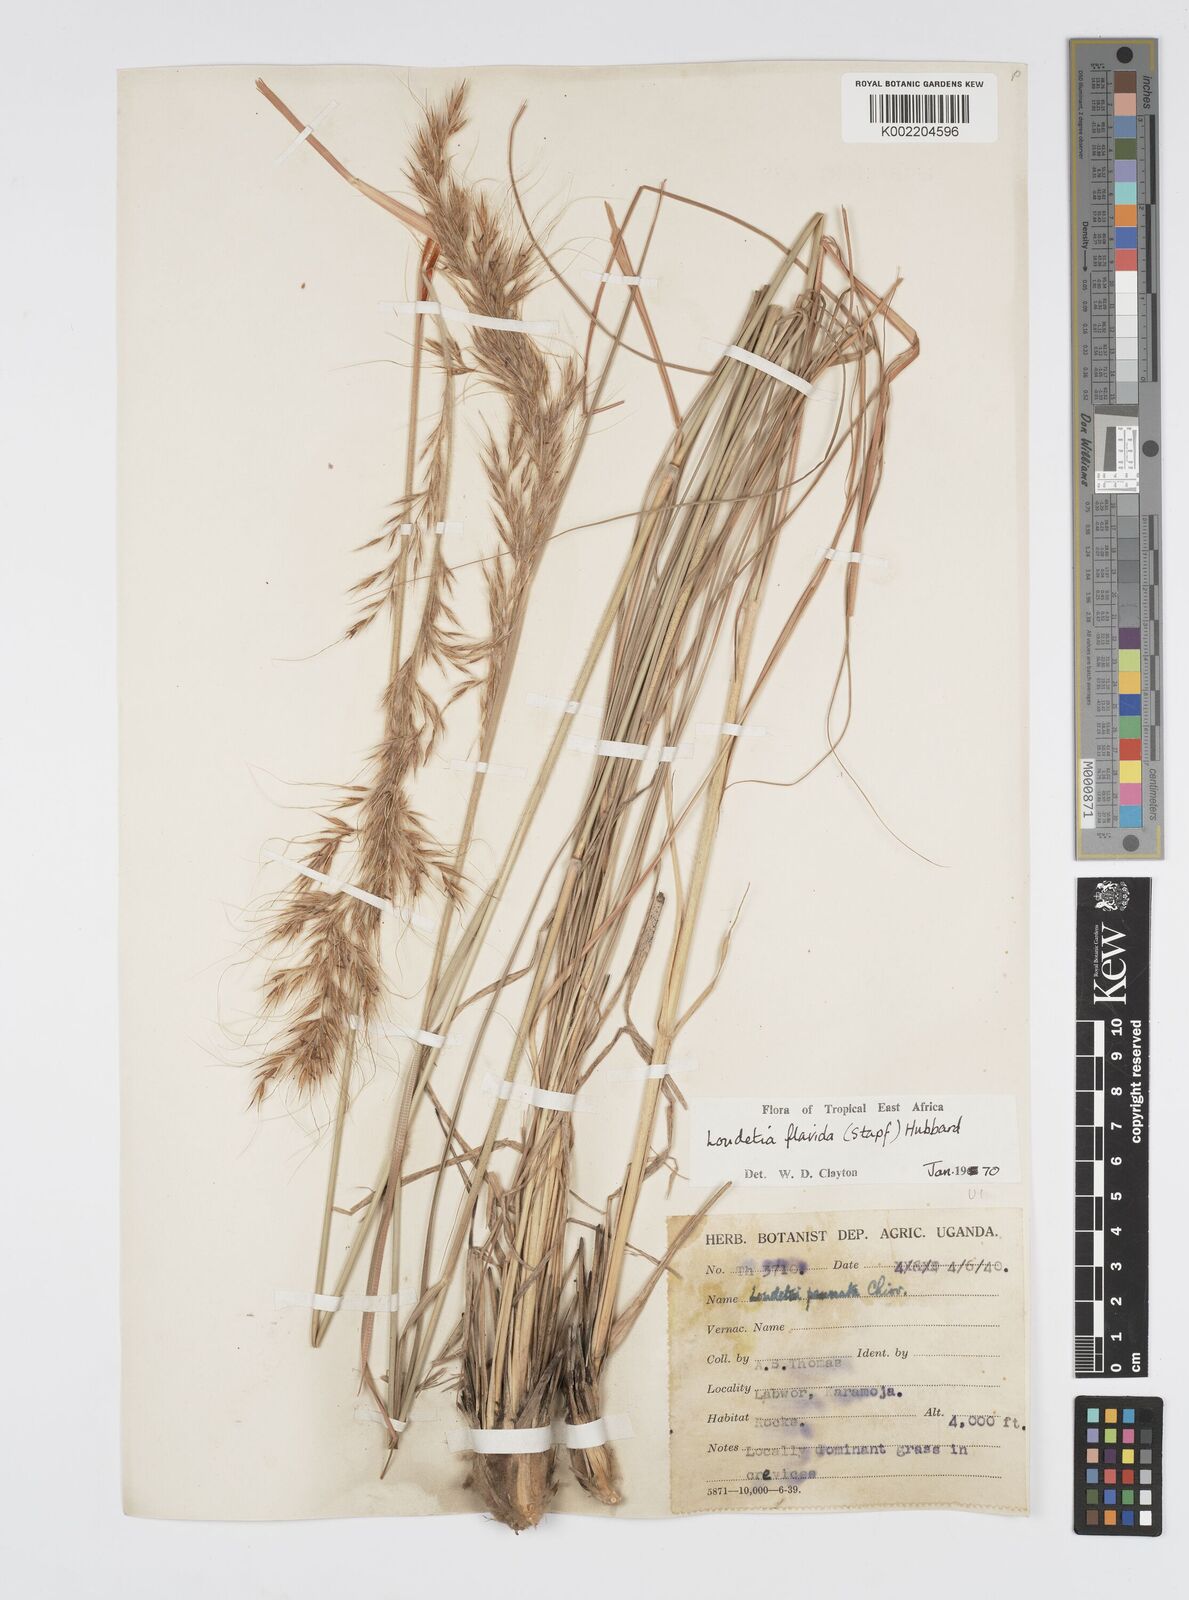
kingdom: Plantae
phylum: Tracheophyta
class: Liliopsida
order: Poales
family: Poaceae
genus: Loudetia
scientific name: Loudetia flavida
